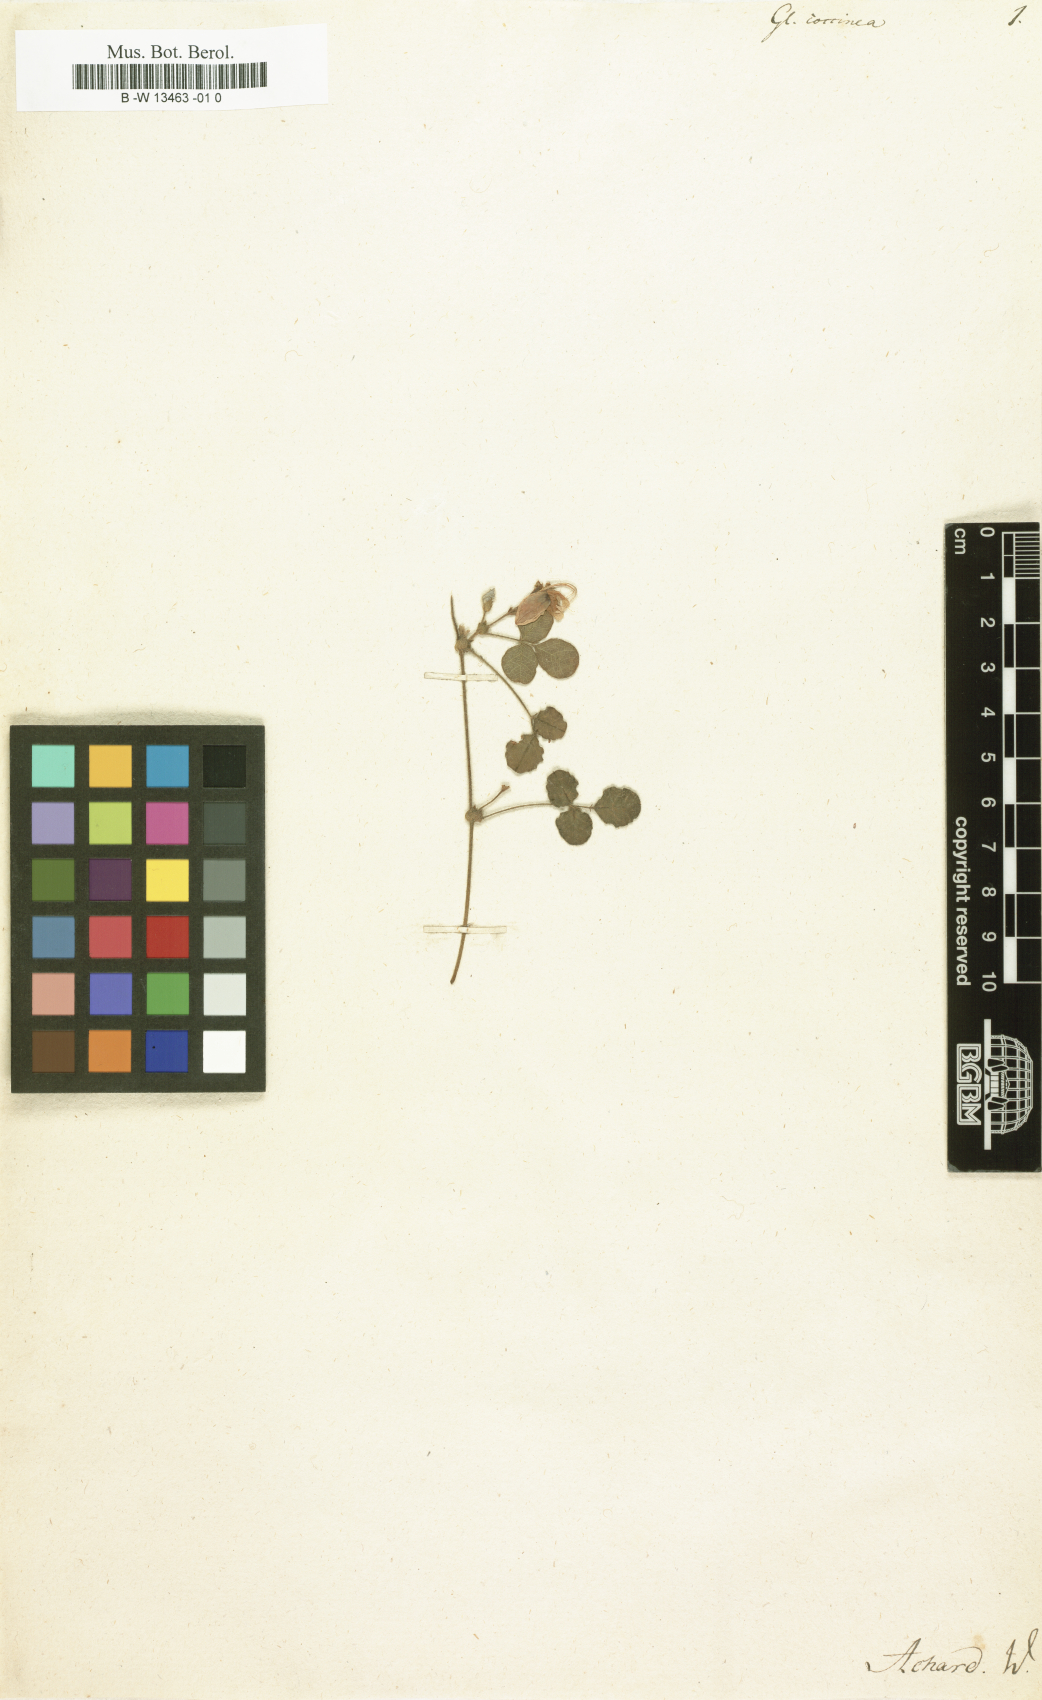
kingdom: Plantae
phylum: Tracheophyta
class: Magnoliopsida
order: Fabales
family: Fabaceae
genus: Kennedia
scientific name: Kennedia coccinea
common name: Coralvine
